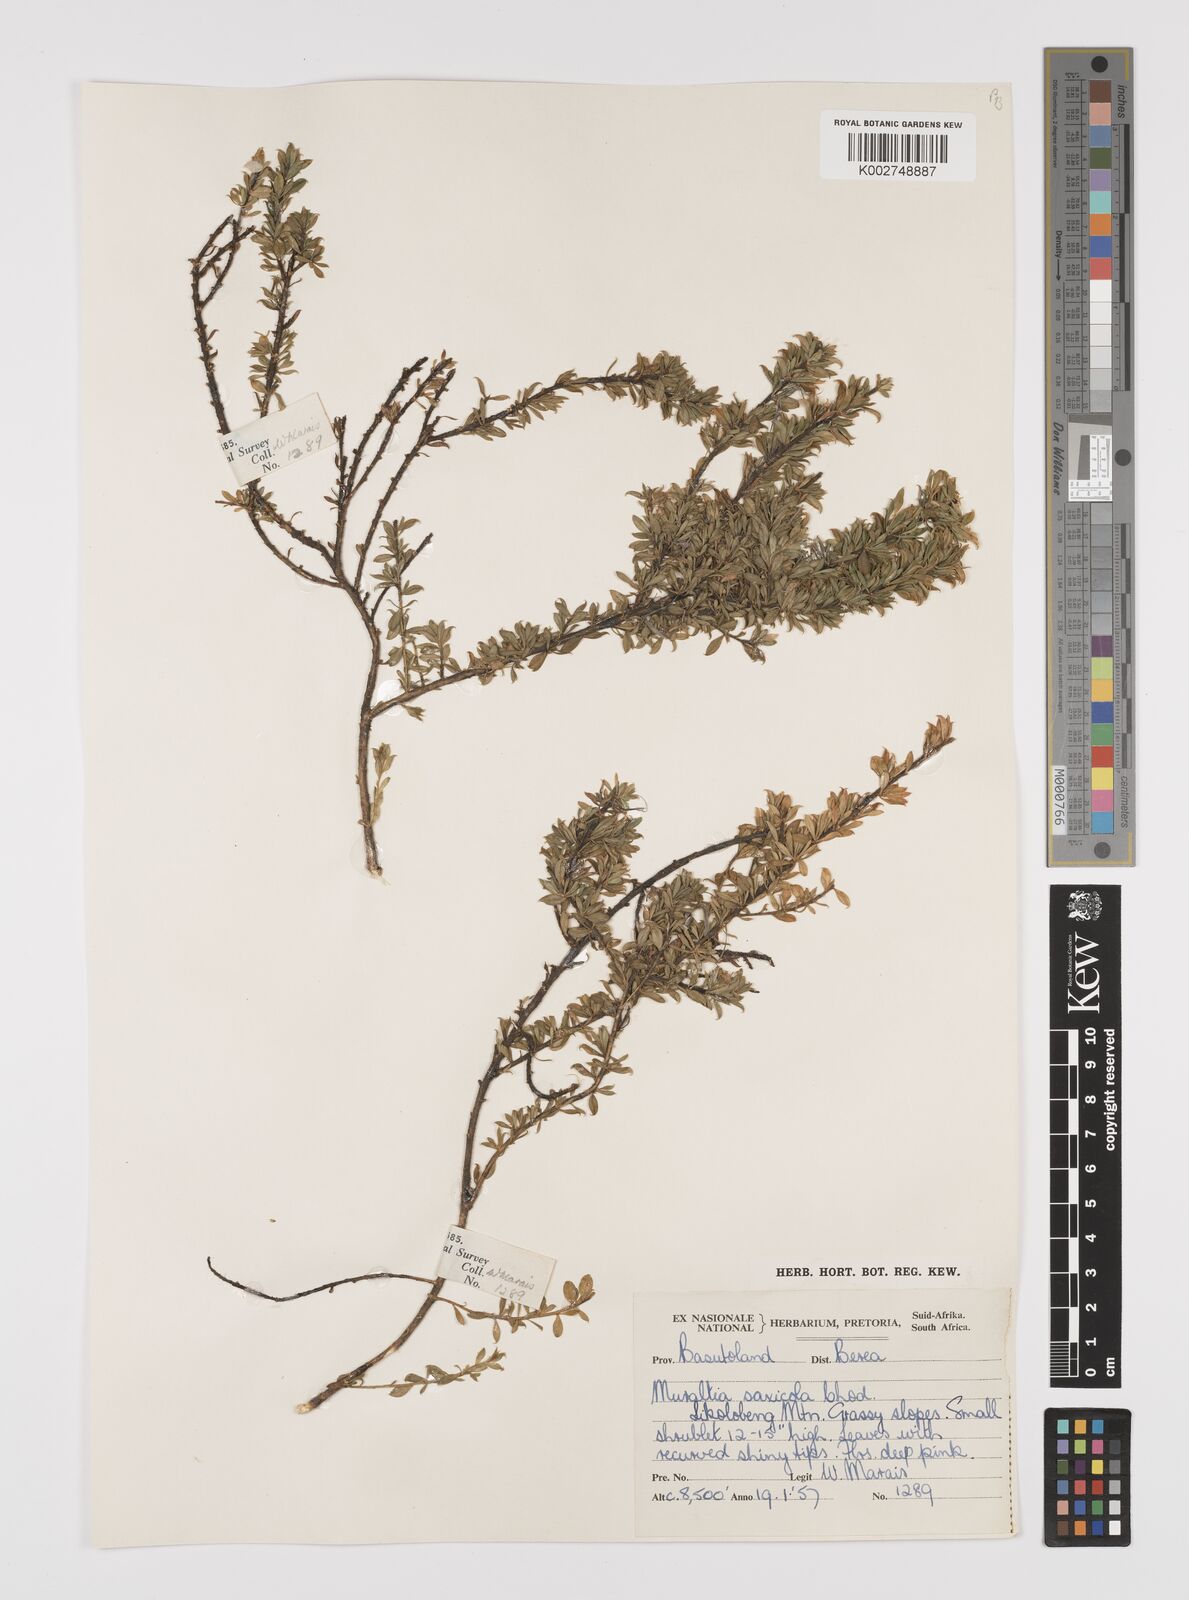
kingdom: Plantae
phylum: Tracheophyta
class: Magnoliopsida
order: Fabales
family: Polygalaceae
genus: Muraltia
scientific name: Muraltia saxicola
